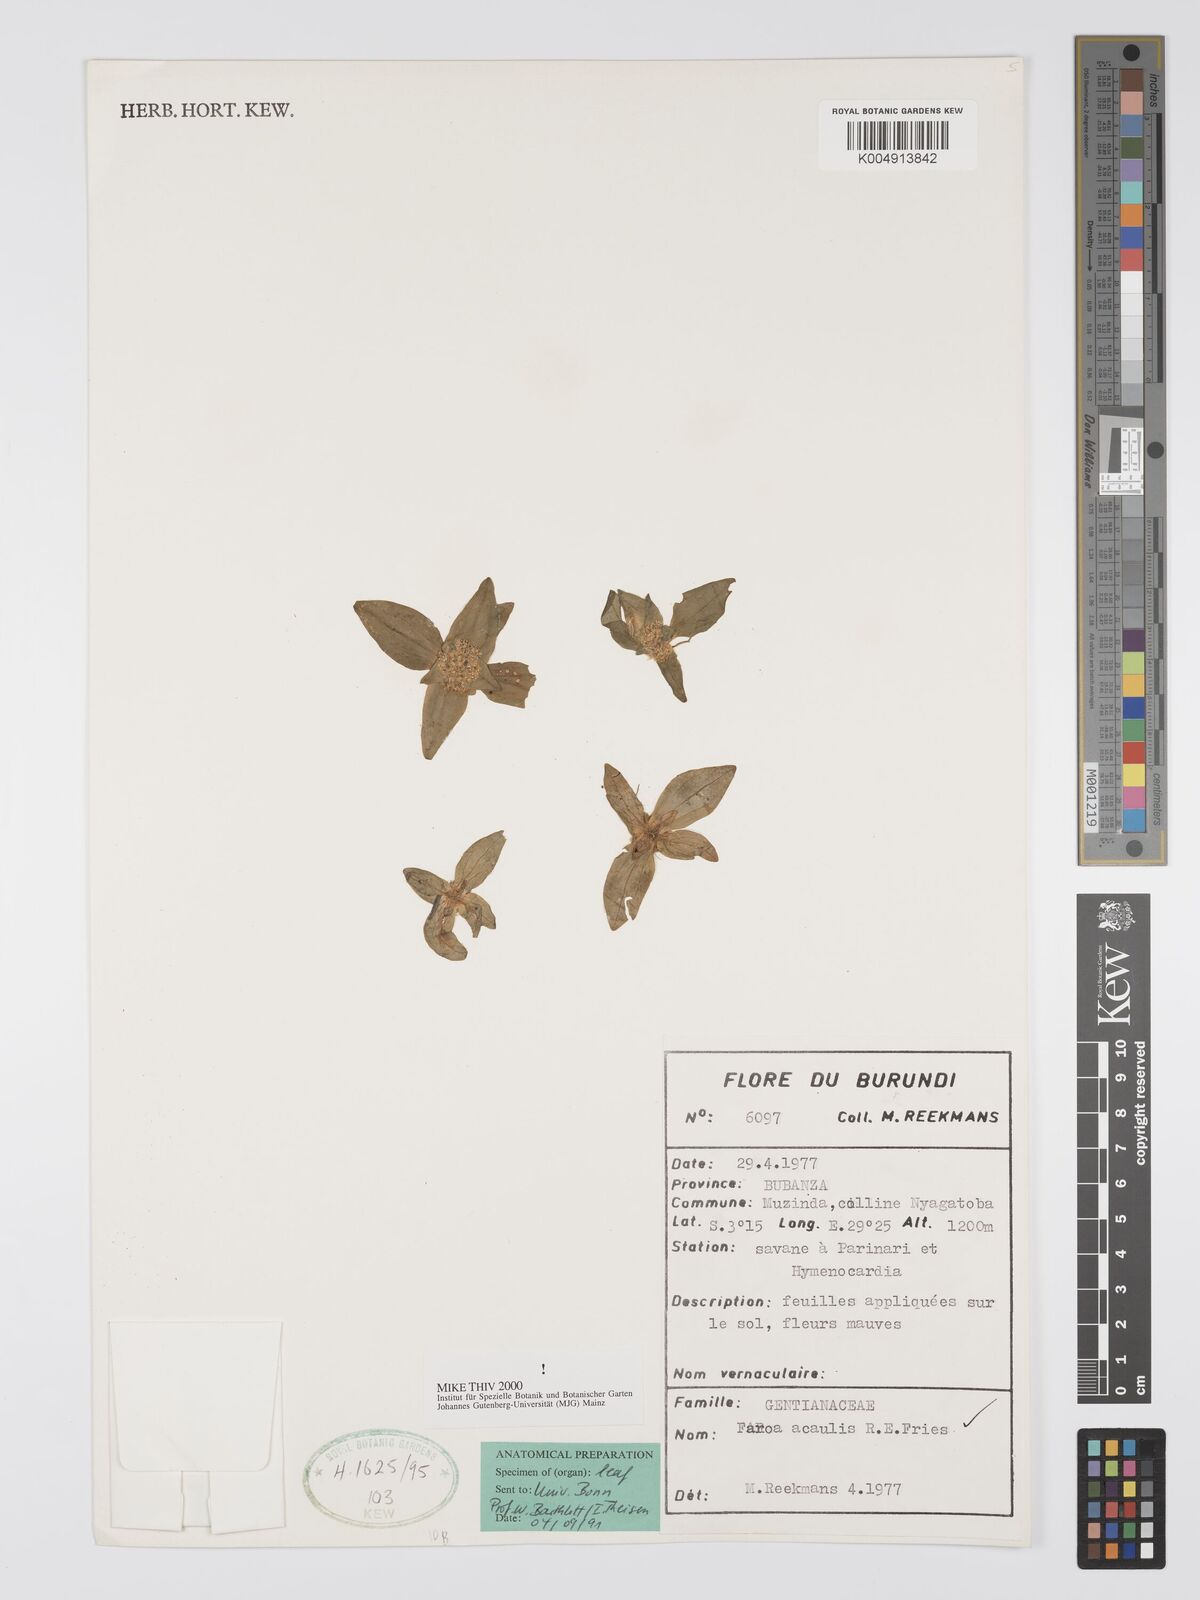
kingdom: Plantae
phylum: Tracheophyta
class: Magnoliopsida
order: Gentianales
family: Gentianaceae
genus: Faroa
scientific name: Faroa axillaris
